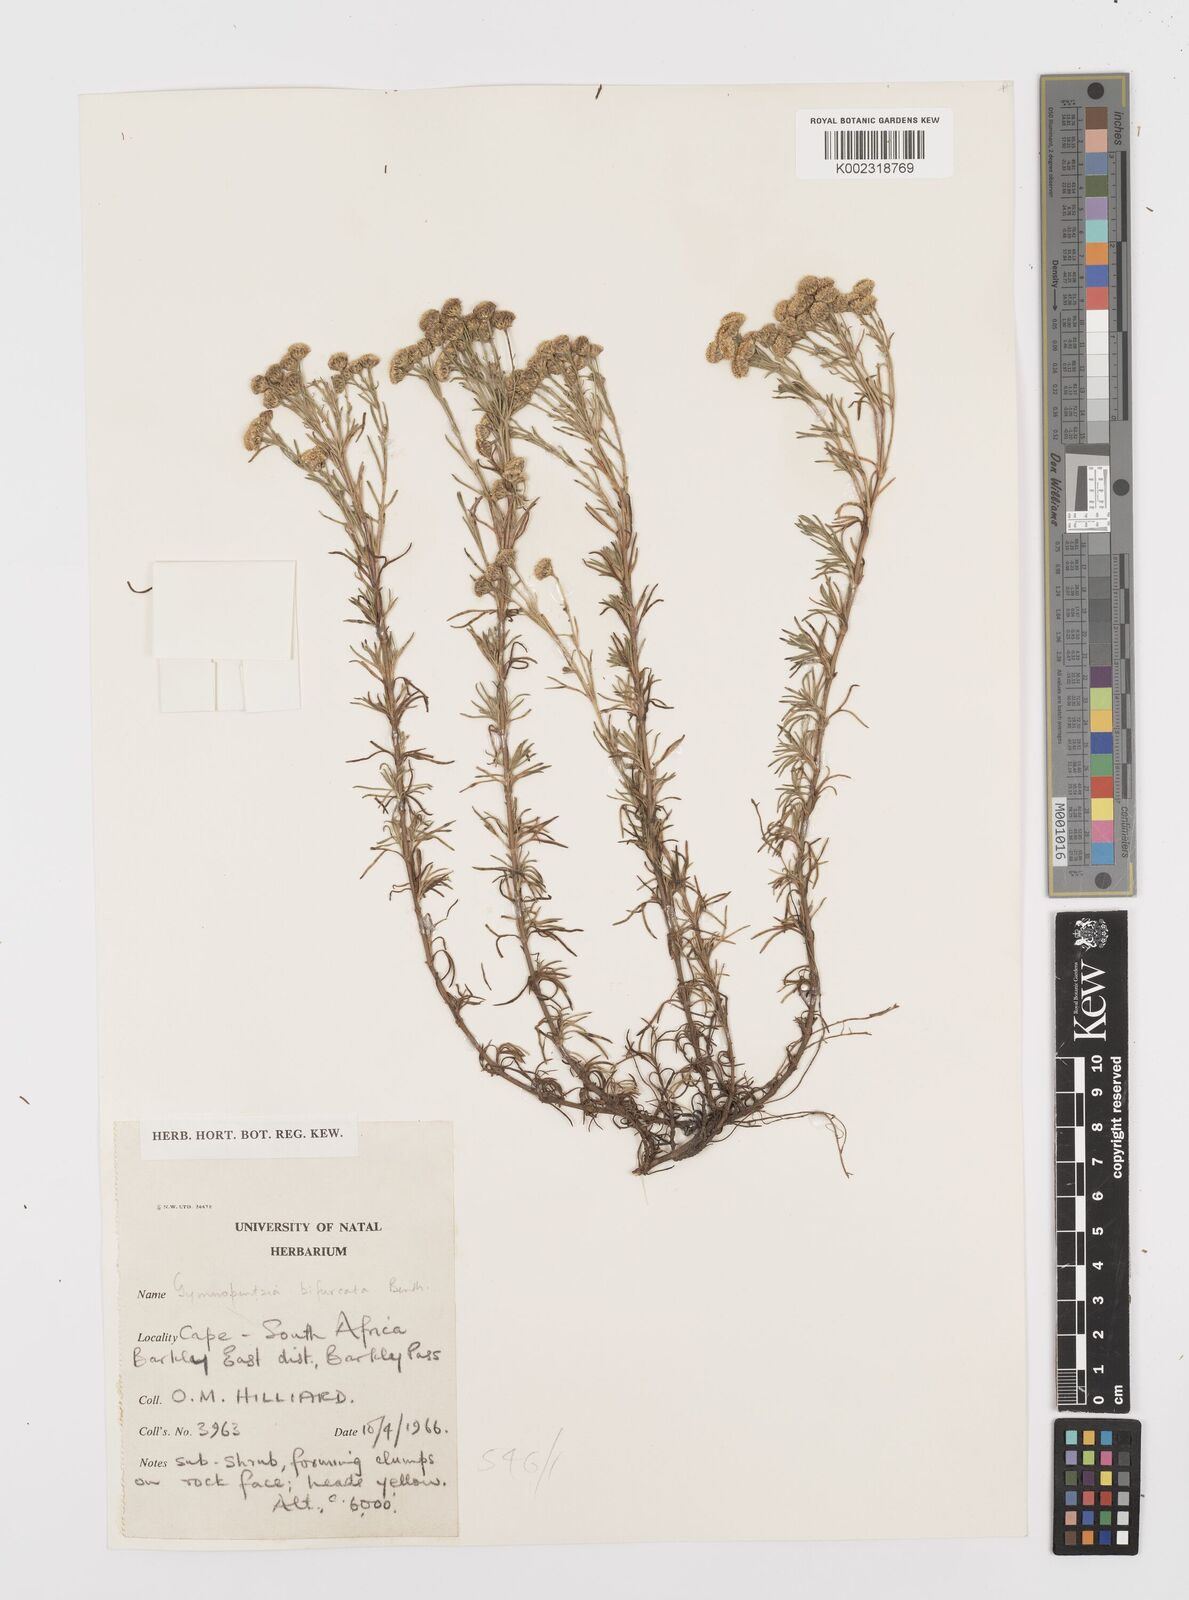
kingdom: Plantae
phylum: Tracheophyta
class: Magnoliopsida
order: Asterales
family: Asteraceae
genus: Gymnopentzia
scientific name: Gymnopentzia bifurcata
